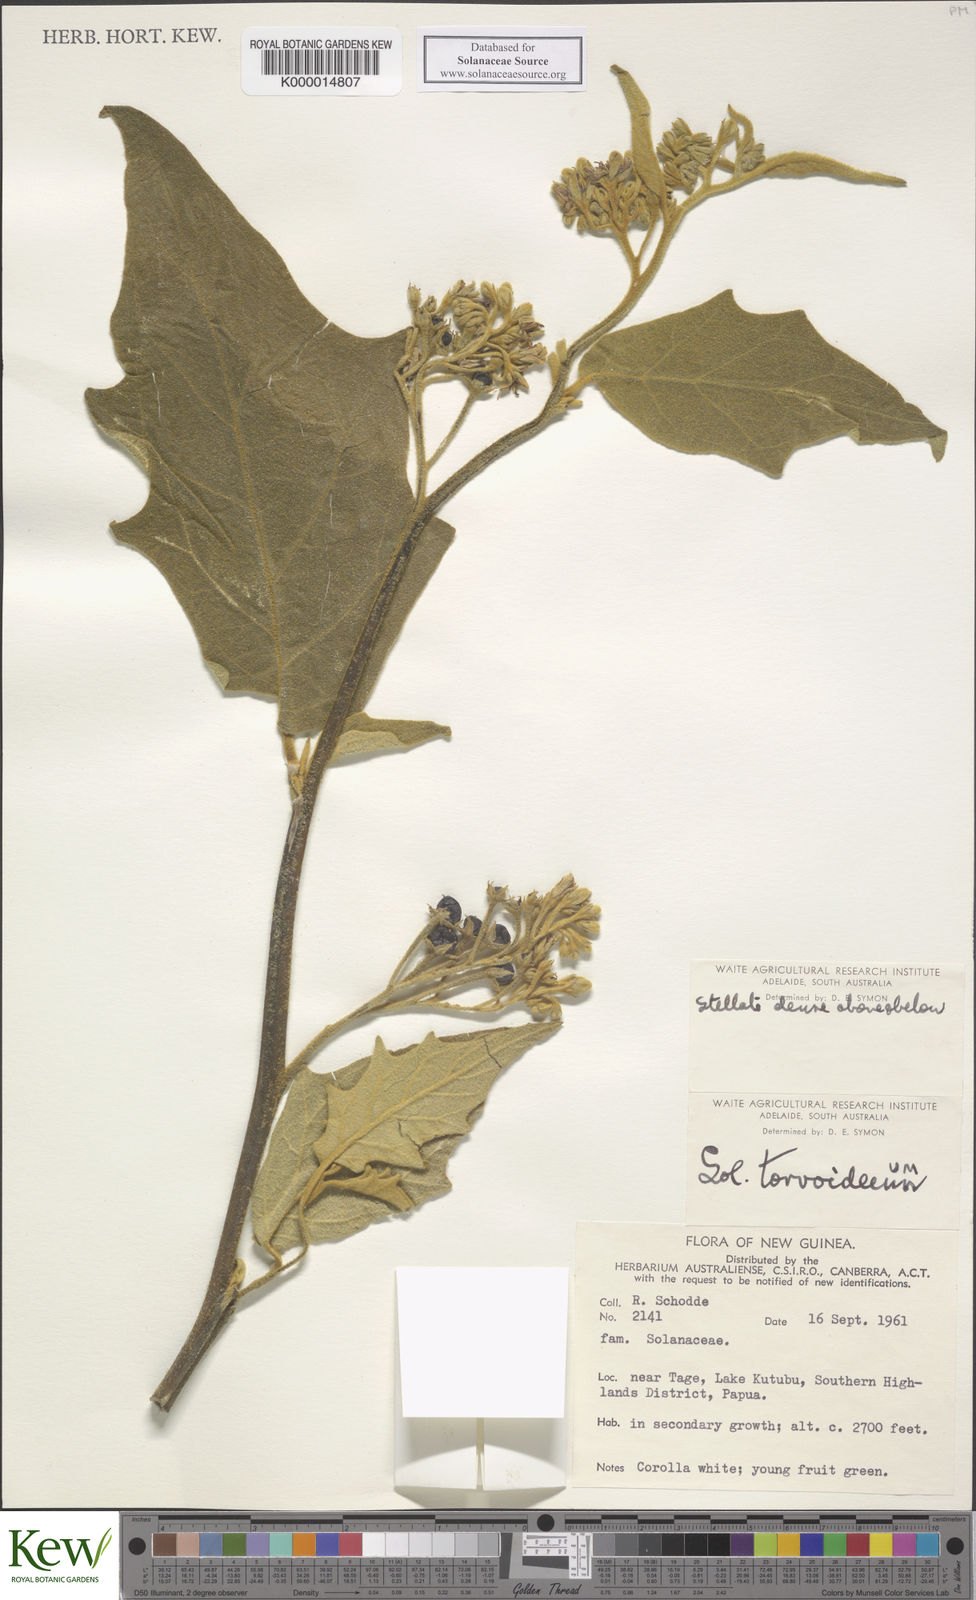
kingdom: Plantae
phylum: Tracheophyta
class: Magnoliopsida
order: Solanales
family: Solanaceae
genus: Solanum
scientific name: Solanum torvoideum
